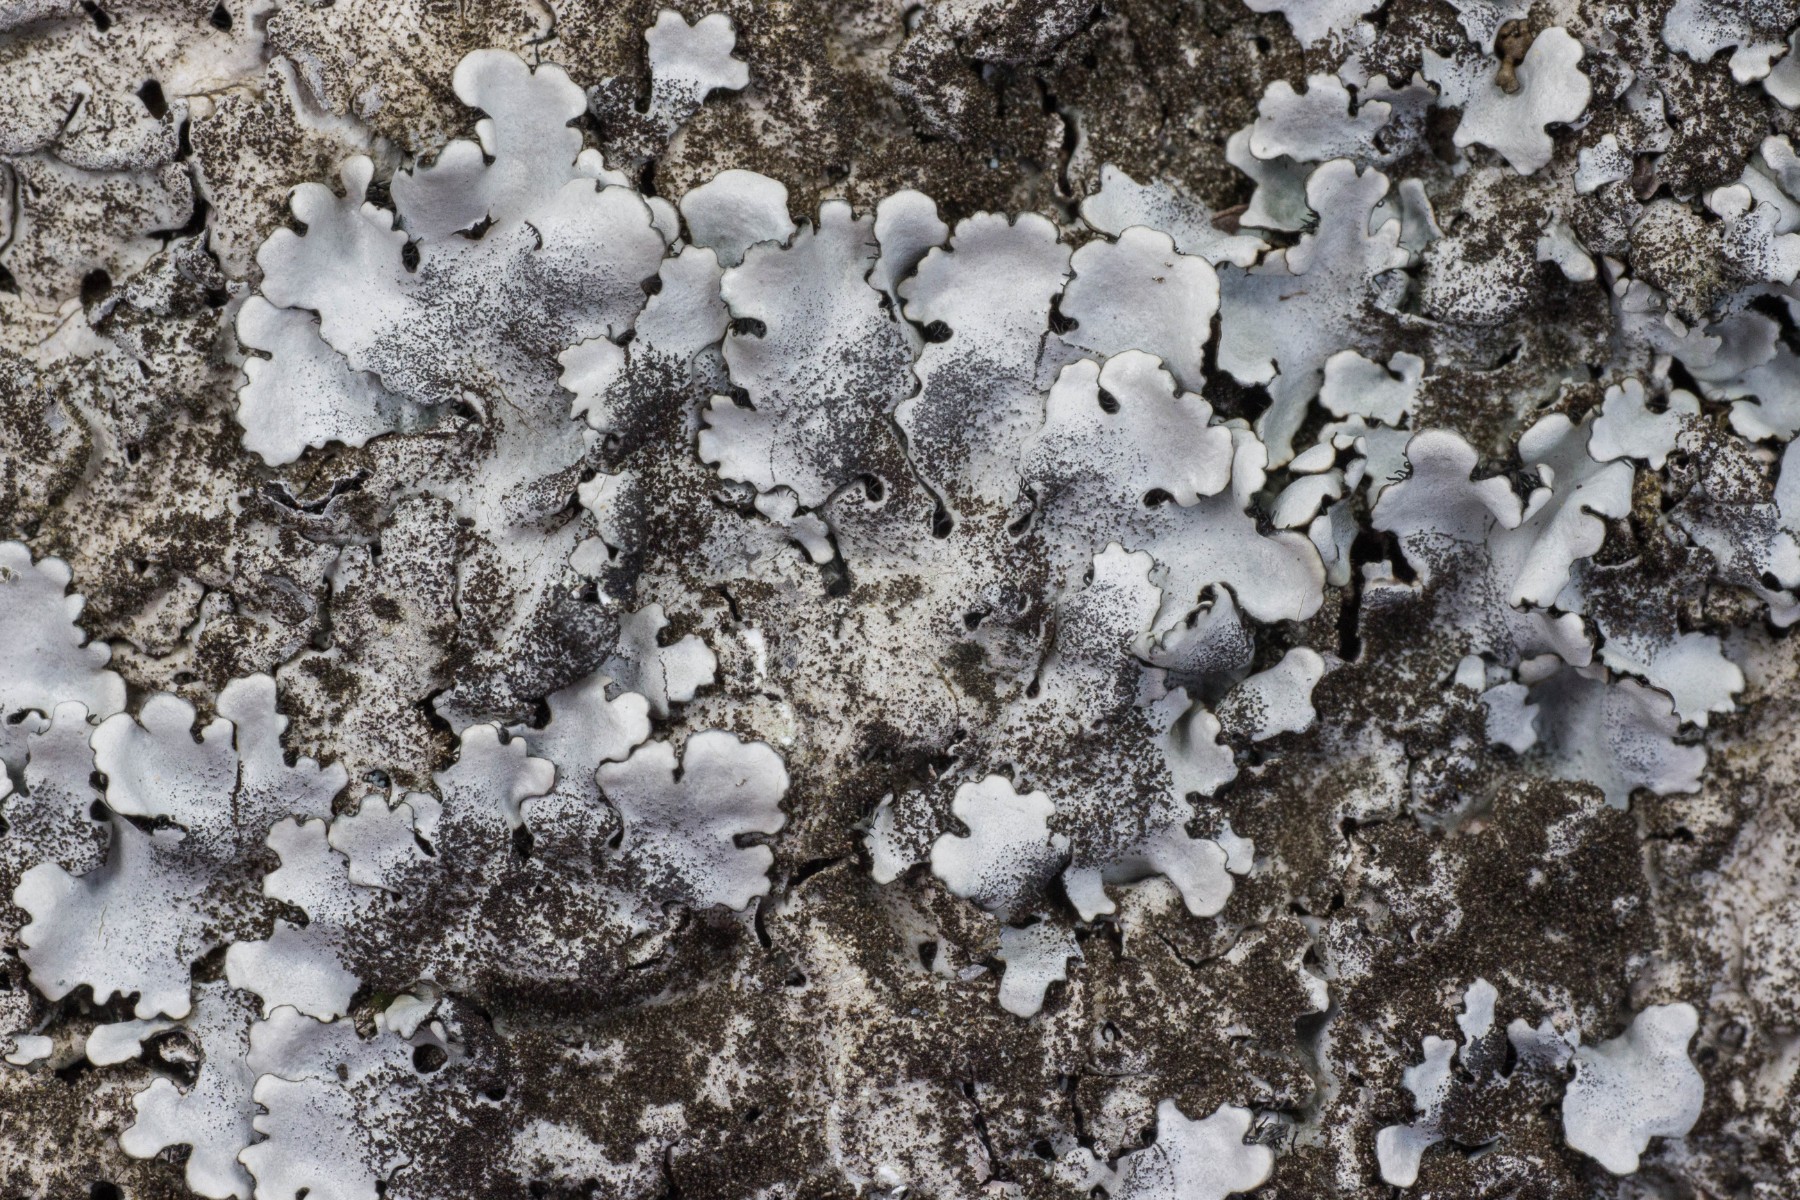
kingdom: Fungi
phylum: Ascomycota
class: Lecanoromycetes
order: Lecanorales
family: Parmeliaceae
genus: Parmelina
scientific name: Parmelina tiliacea
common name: sølvgrå skållav
